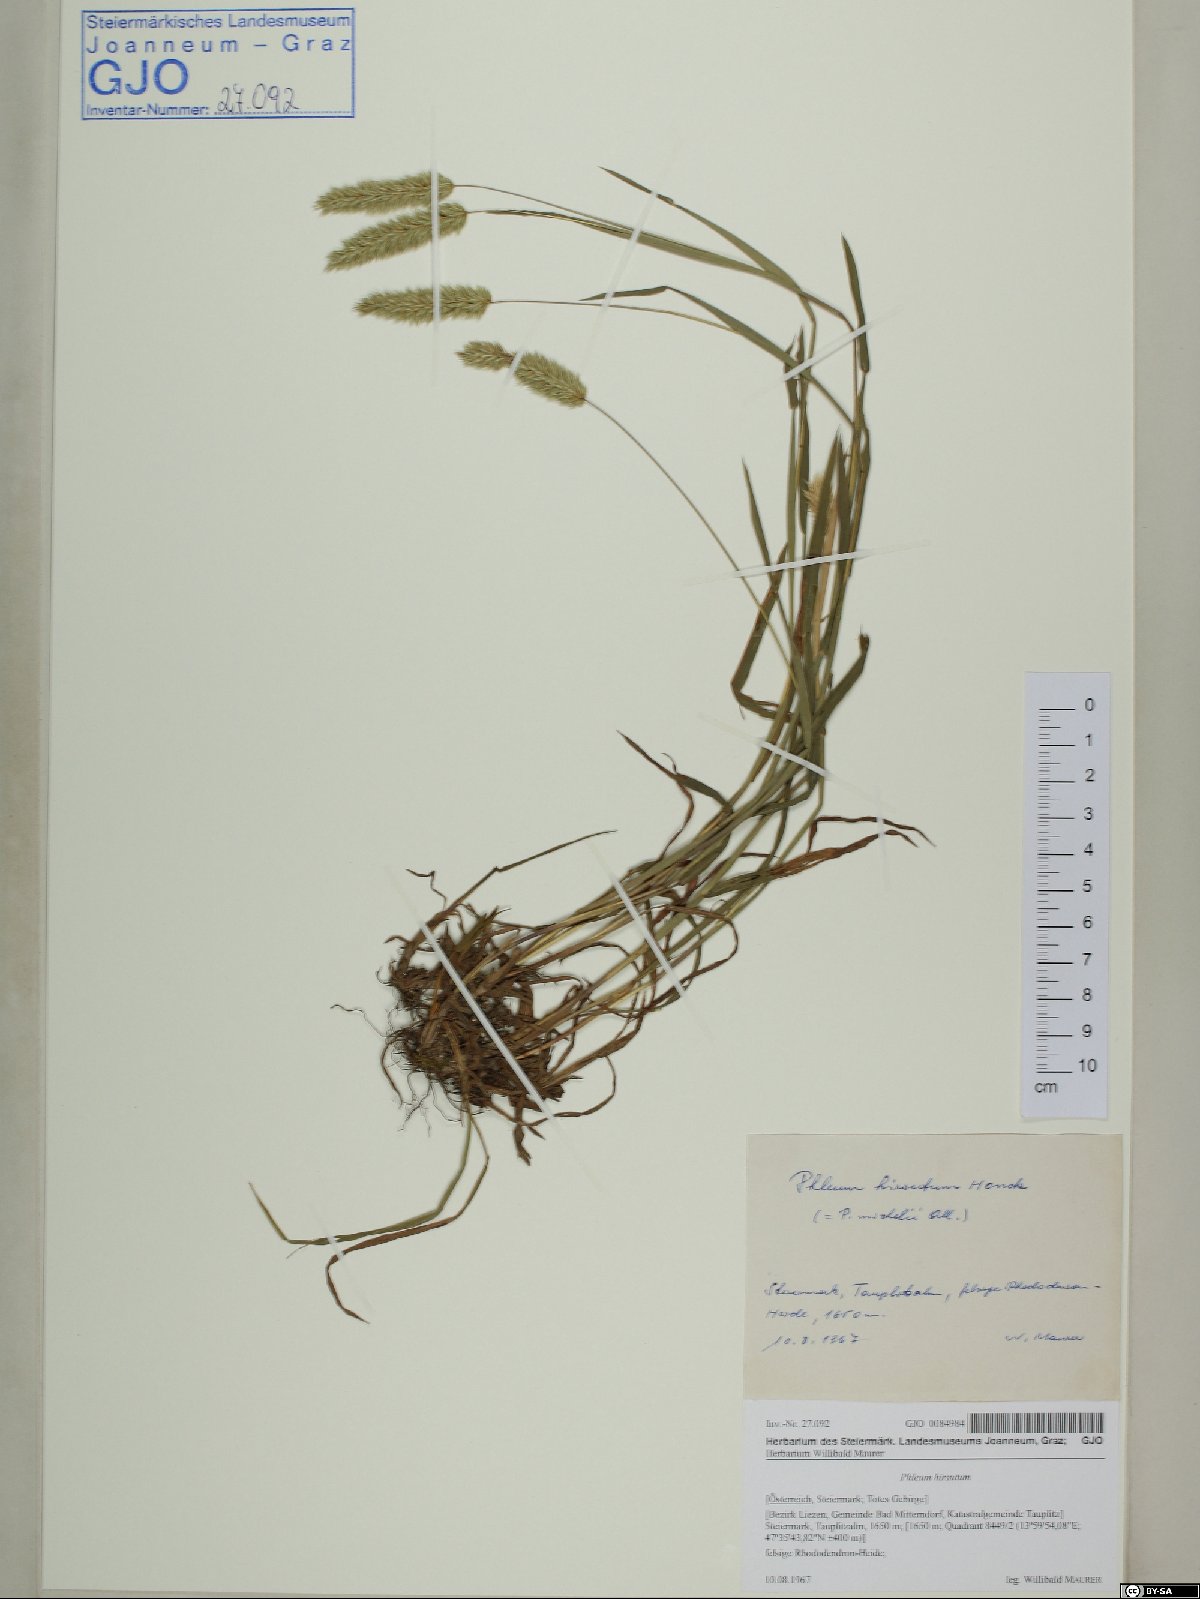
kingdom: Plantae
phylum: Tracheophyta
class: Liliopsida
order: Poales
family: Poaceae
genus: Phleum
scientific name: Phleum hirsutum
